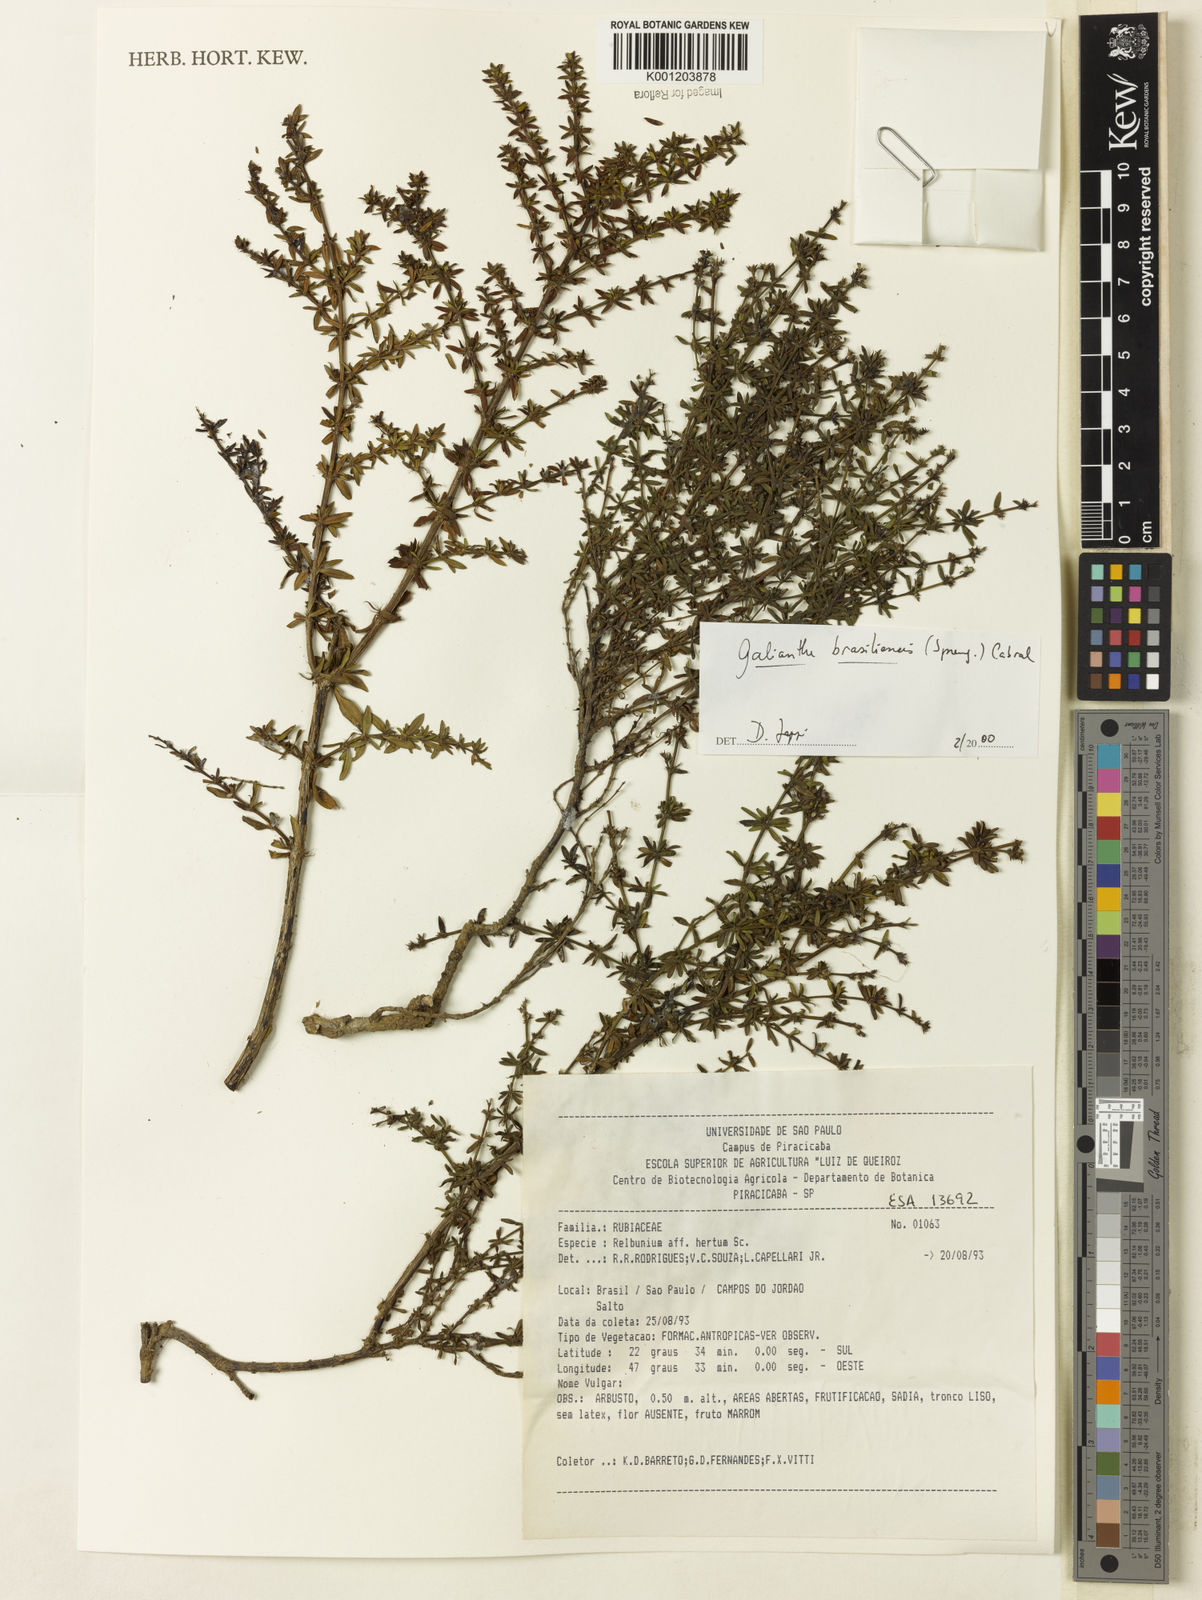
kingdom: Plantae
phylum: Tracheophyta
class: Magnoliopsida
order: Gentianales
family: Rubiaceae
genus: Galianthe
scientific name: Galianthe brasiliensis
